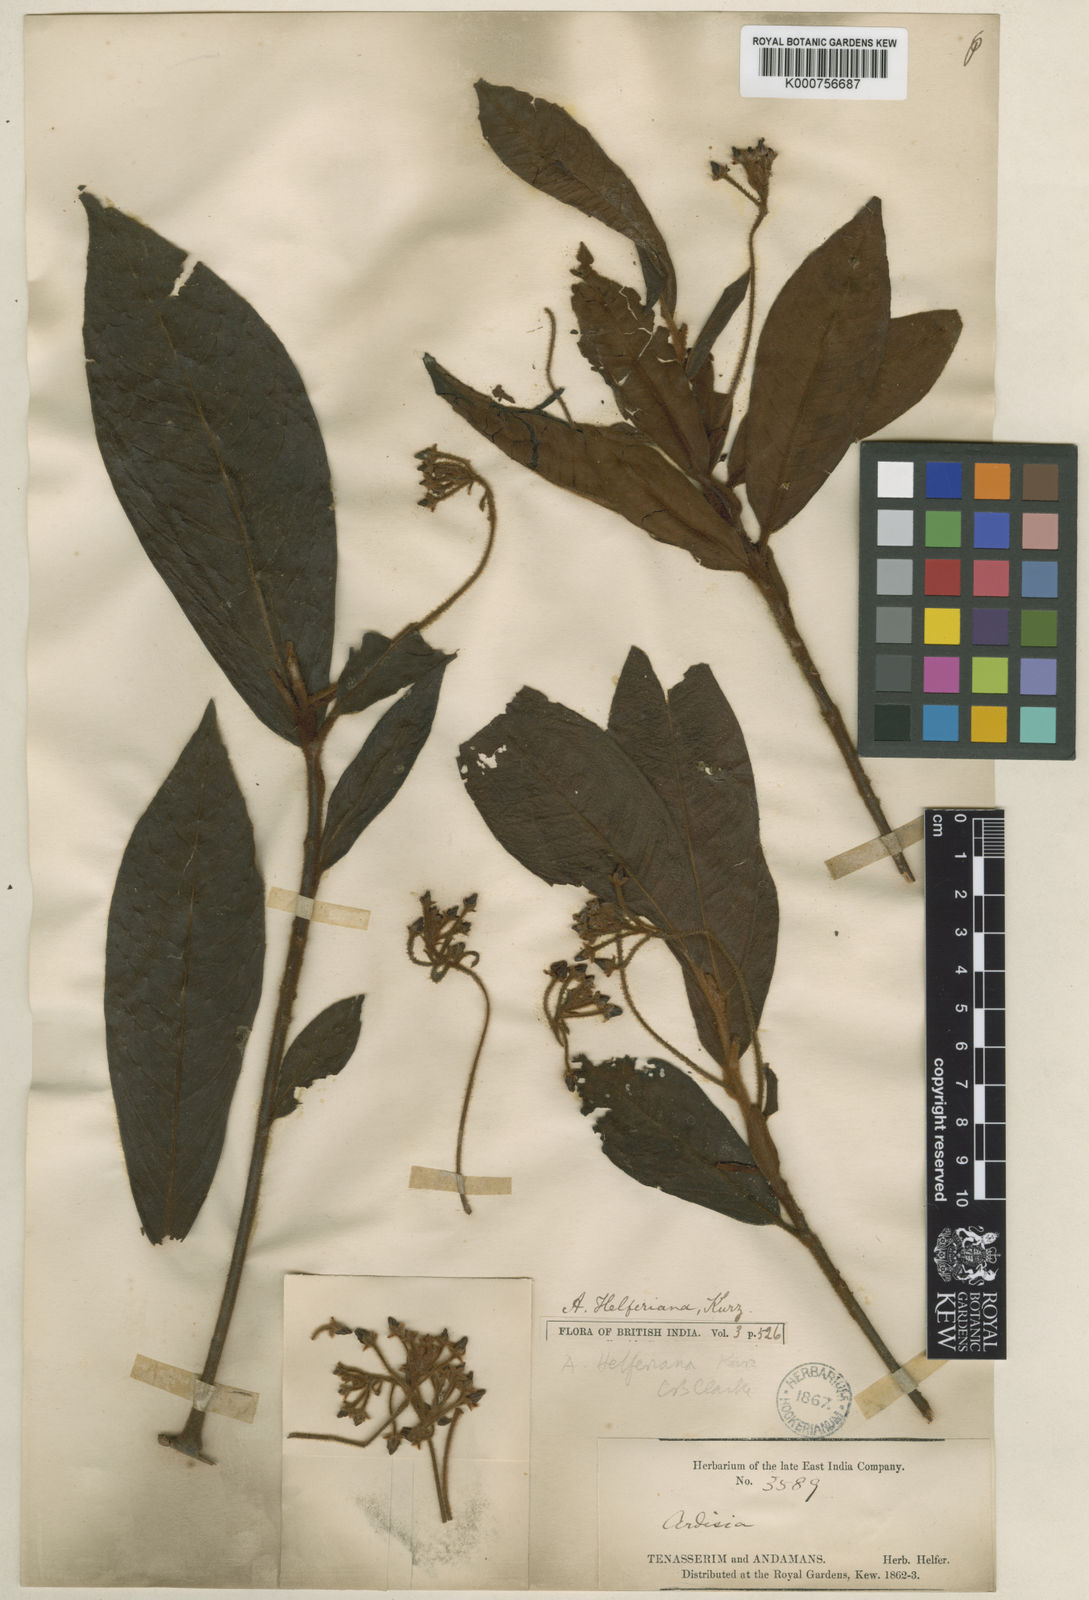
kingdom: Plantae
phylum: Tracheophyta
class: Magnoliopsida
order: Ericales
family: Primulaceae
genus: Ardisia
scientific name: Ardisia helferiana
